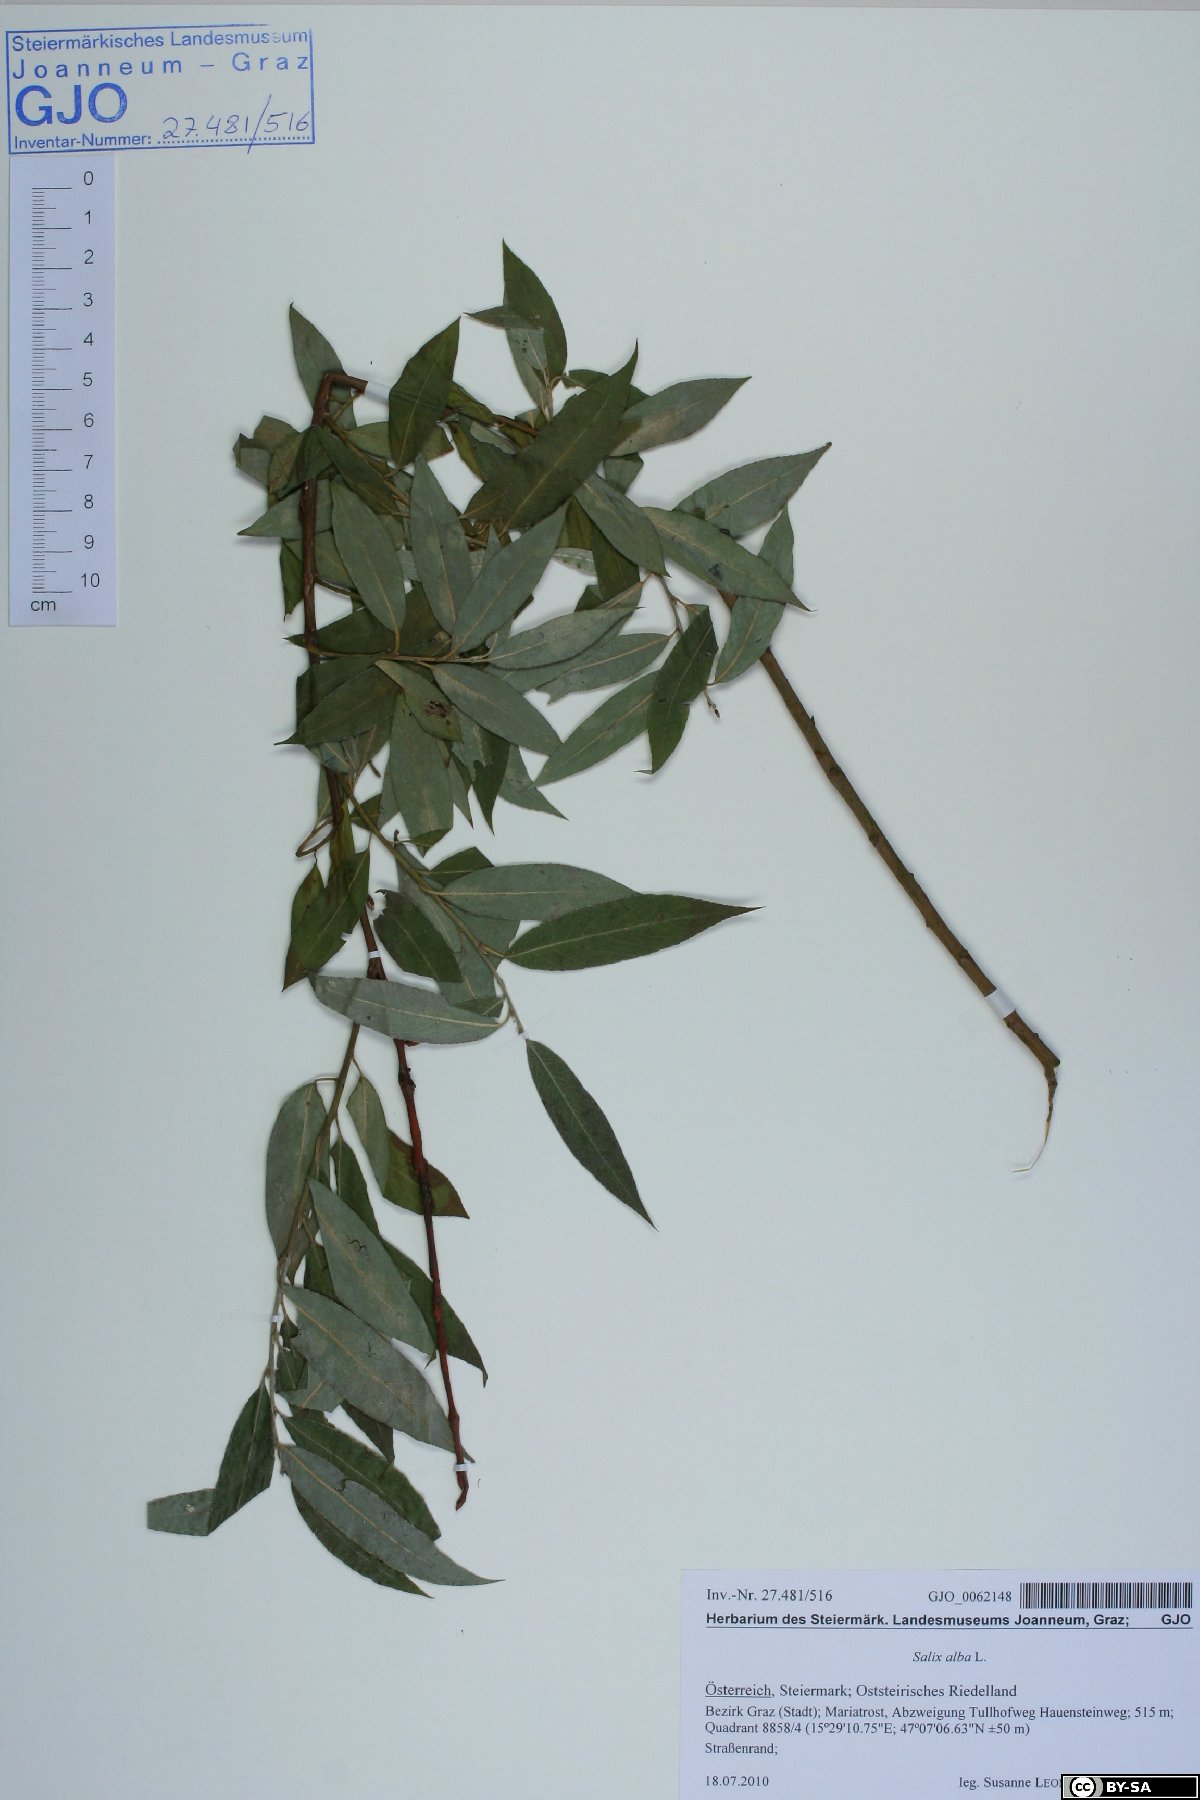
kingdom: Plantae
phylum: Tracheophyta
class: Magnoliopsida
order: Malpighiales
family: Salicaceae
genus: Salix
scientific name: Salix alba
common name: White willow
